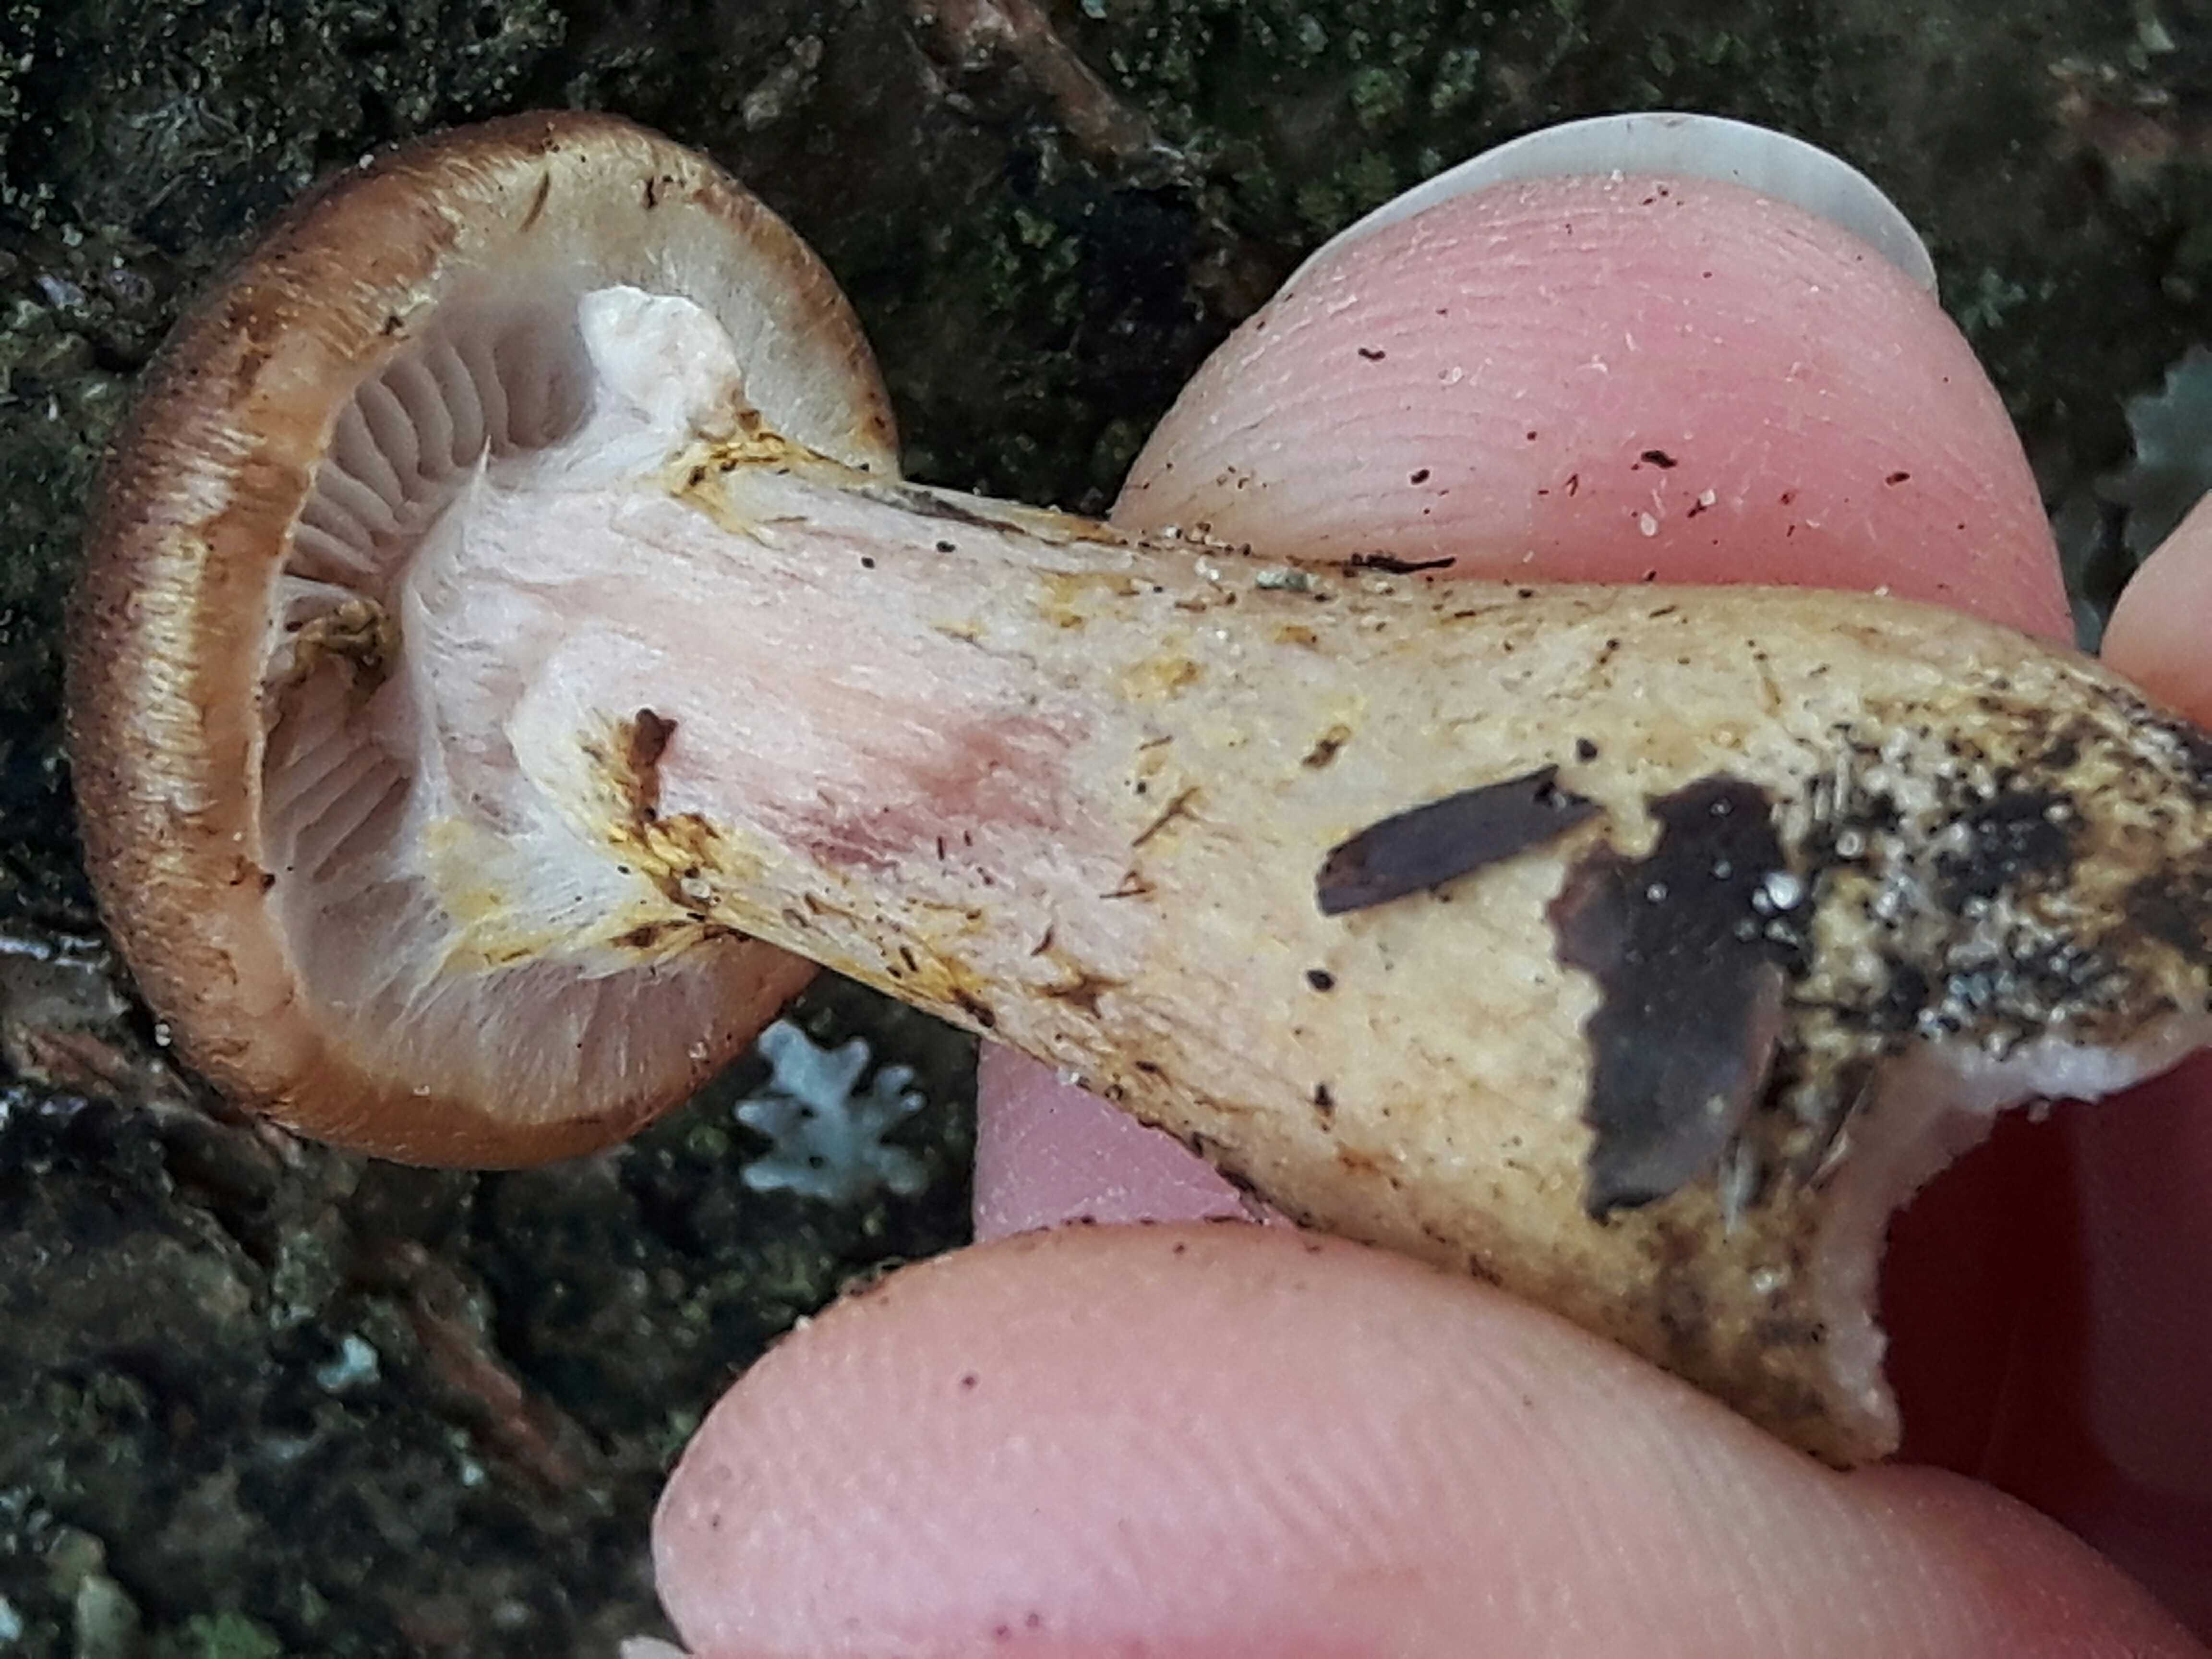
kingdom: Fungi
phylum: Basidiomycota
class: Agaricomycetes
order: Agaricales
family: Physalacriaceae
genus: Armillaria
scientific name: Armillaria lutea
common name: køllestokket honningsvamp
